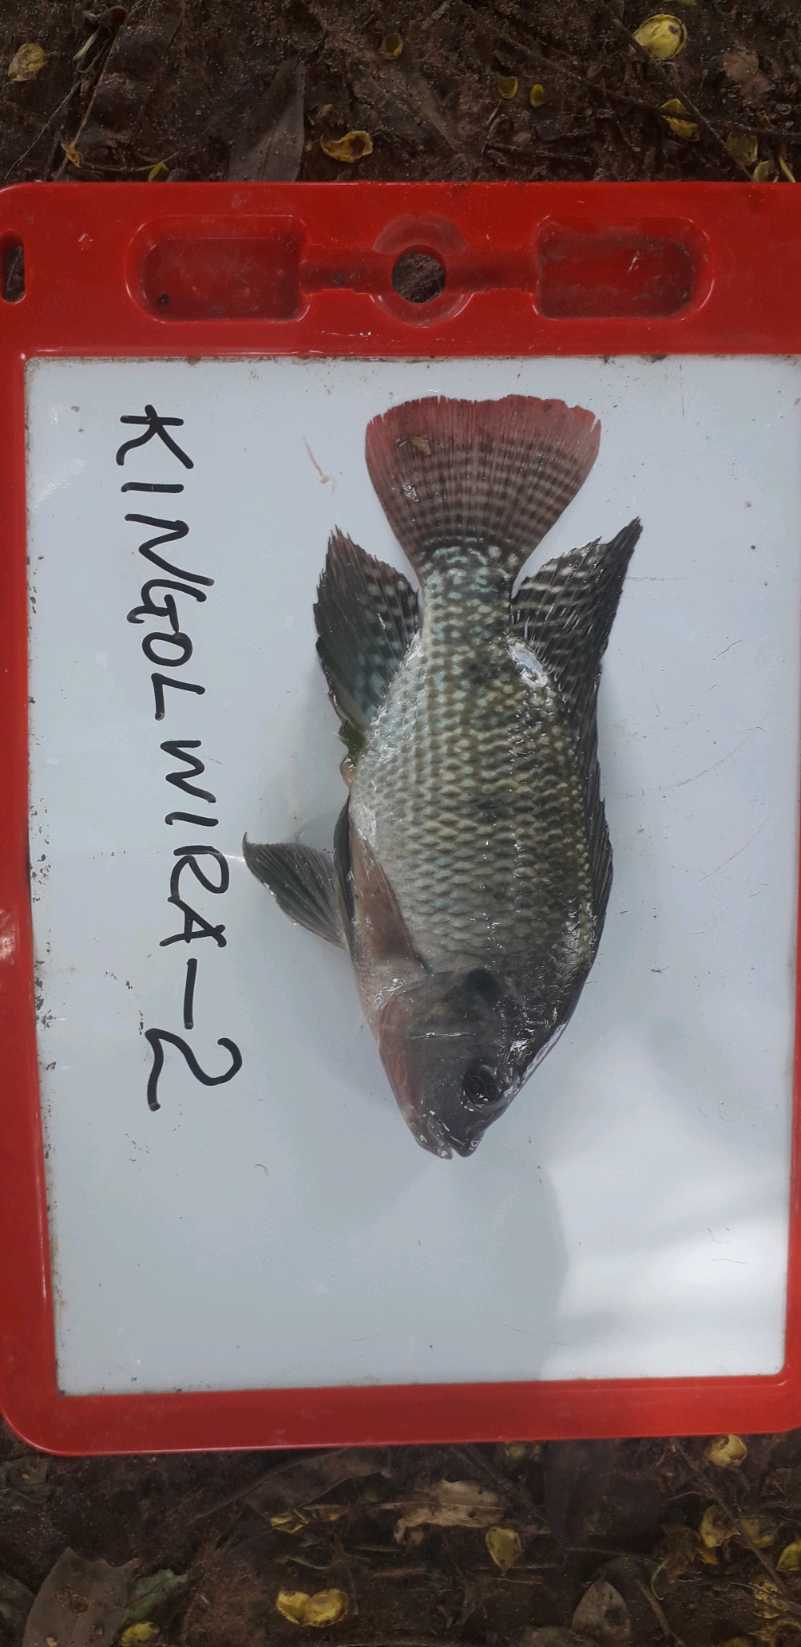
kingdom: Animalia
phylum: Chordata
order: Perciformes
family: Cichlidae
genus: Oreochromis
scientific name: Oreochromis niloticus
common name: Nile tilapia
